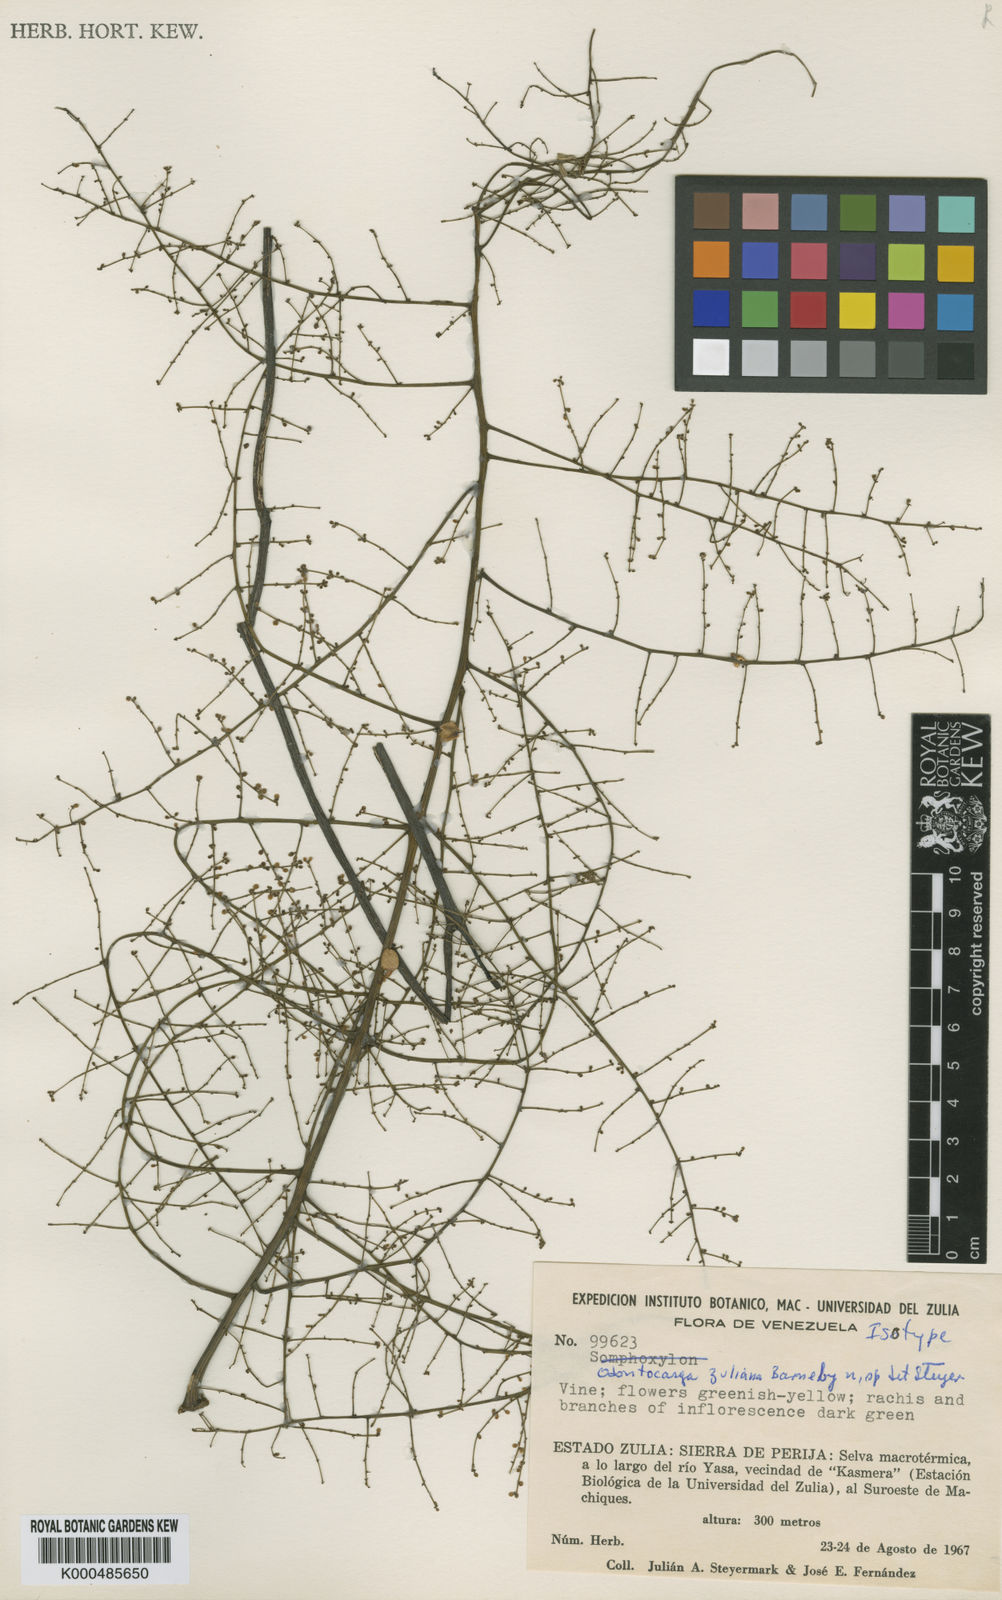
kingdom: Plantae
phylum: Tracheophyta
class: Magnoliopsida
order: Ranunculales
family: Menispermaceae
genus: Odontocarya
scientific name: Odontocarya zuliana
